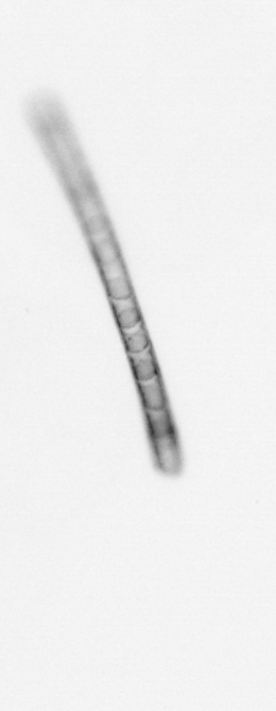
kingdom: Chromista
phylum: Ochrophyta
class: Bacillariophyceae
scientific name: Bacillariophyceae
